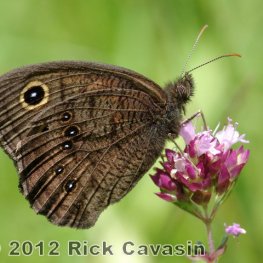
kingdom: Animalia
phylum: Arthropoda
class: Insecta
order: Lepidoptera
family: Nymphalidae
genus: Cercyonis
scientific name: Cercyonis pegala
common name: Common Wood-Nymph
